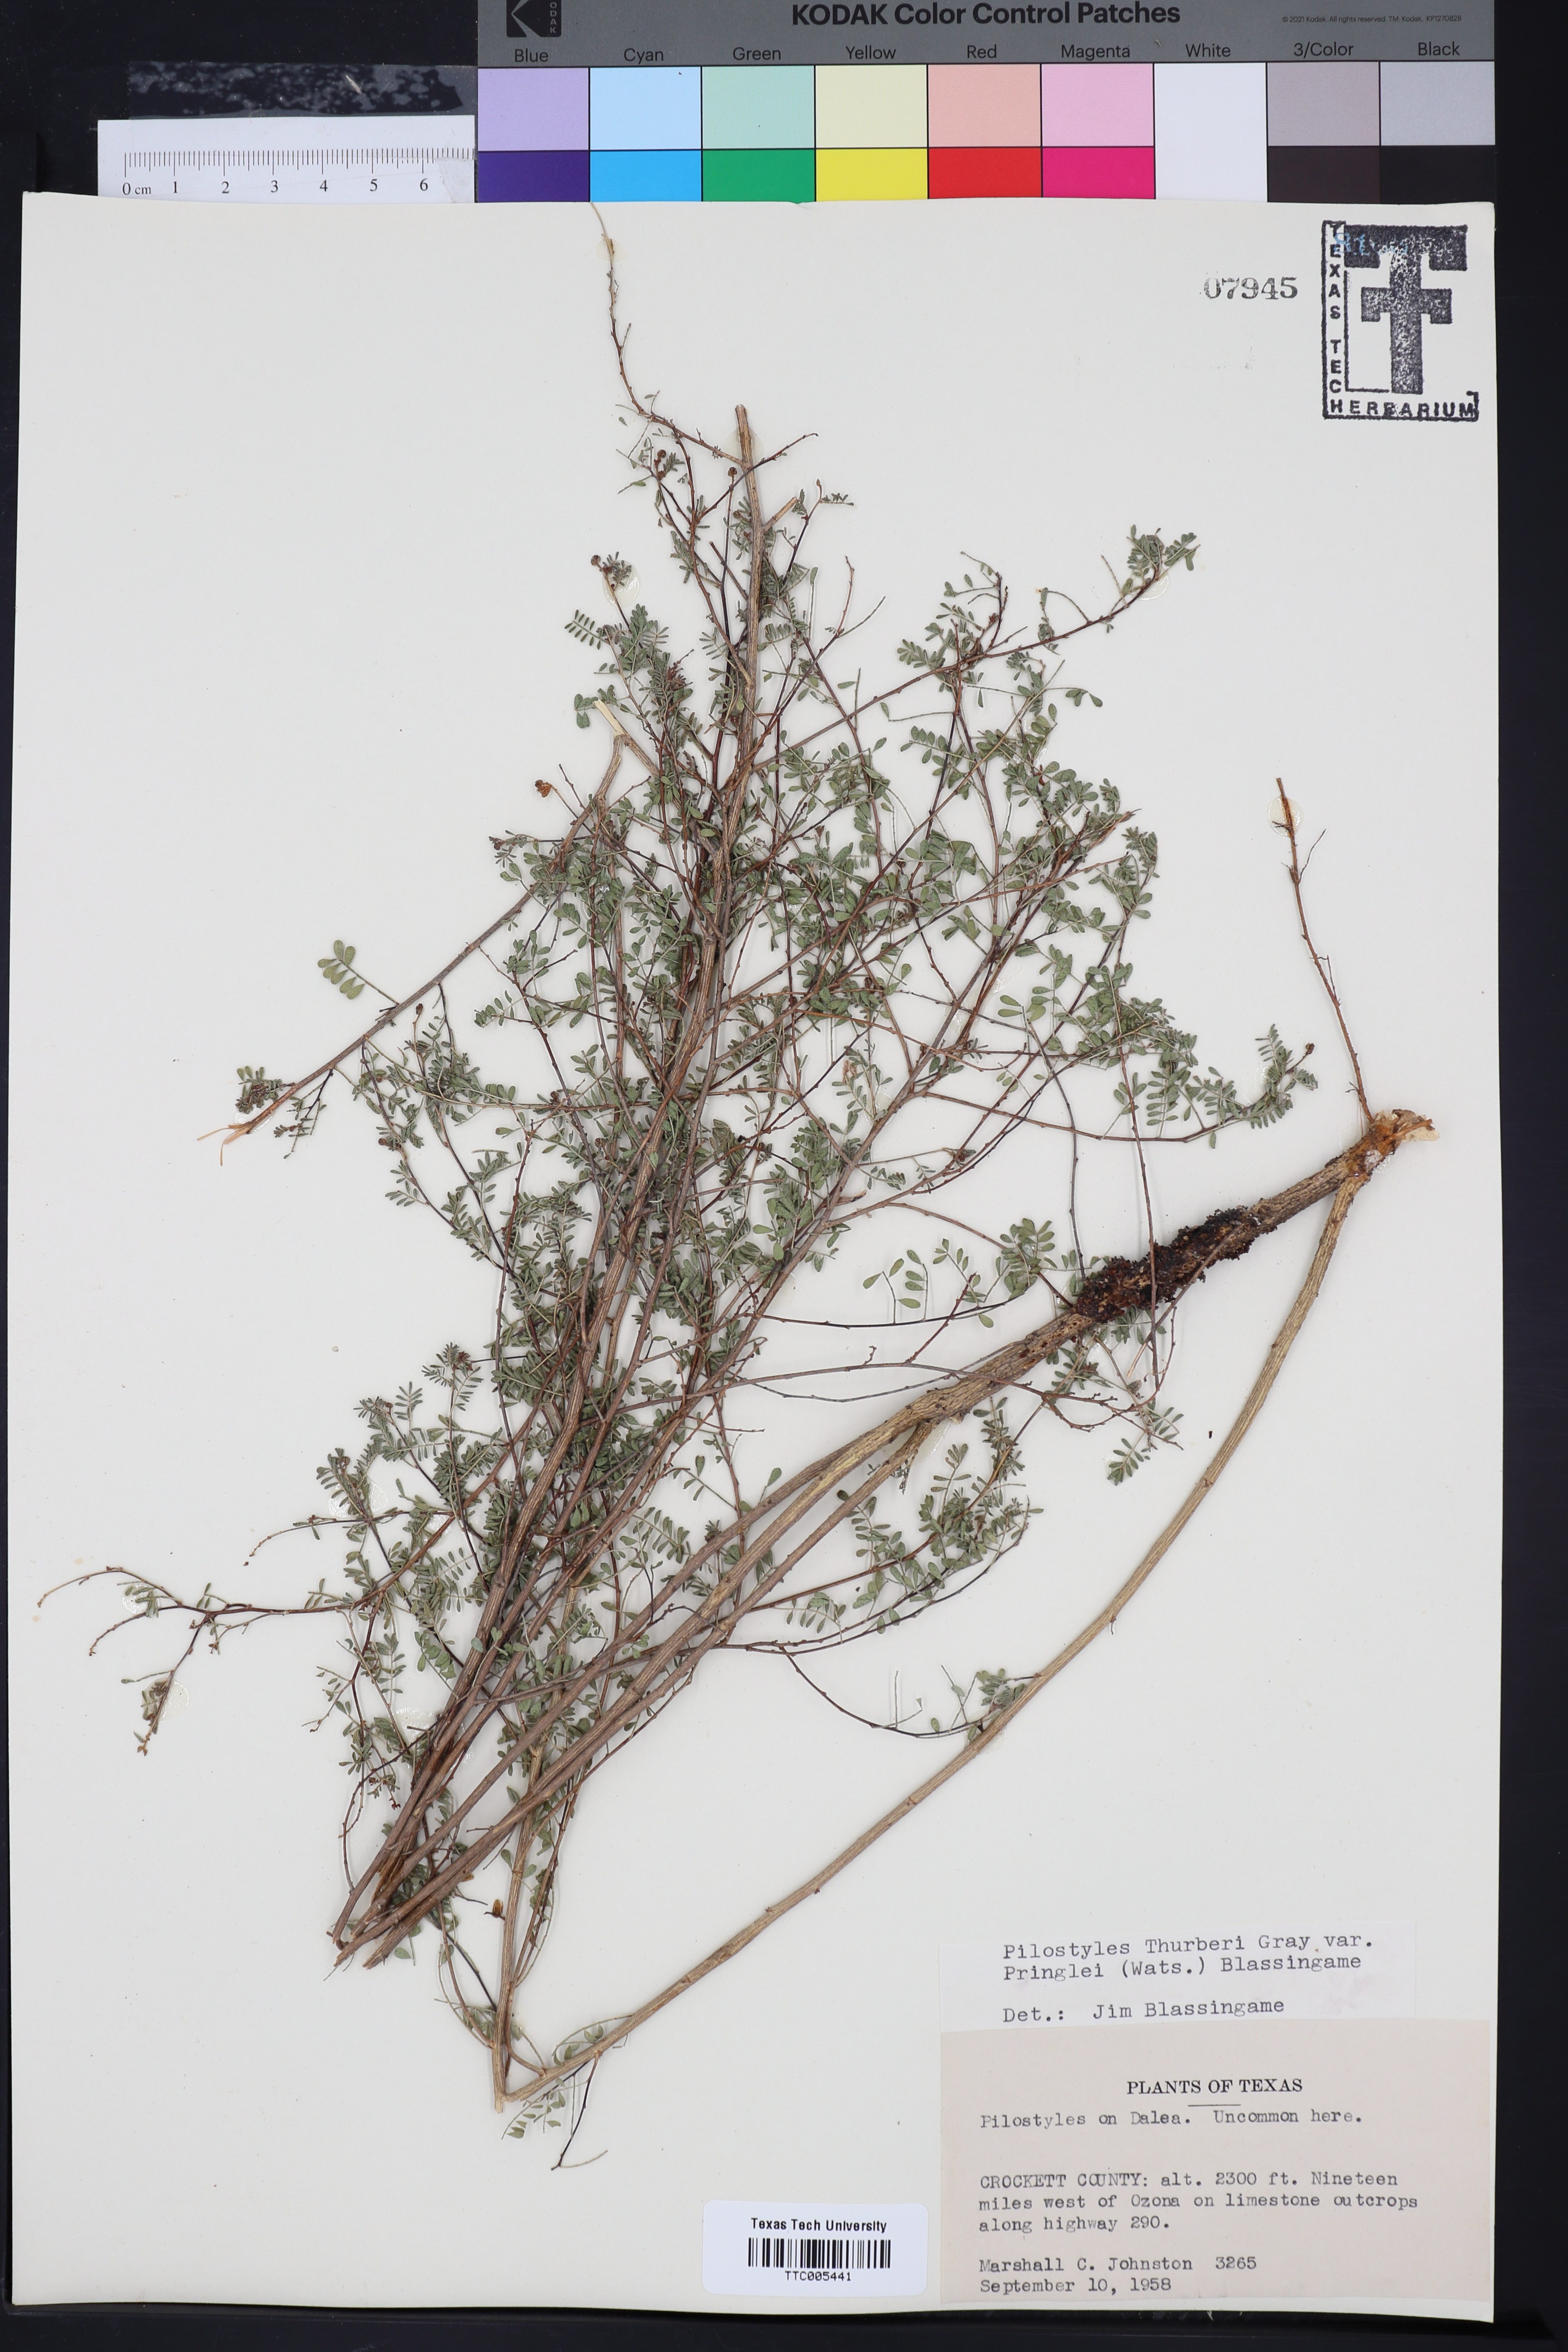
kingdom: Plantae
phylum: Tracheophyta
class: Magnoliopsida
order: Cucurbitales
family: Apodanthaceae
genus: Pilostyles
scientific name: Pilostyles thurberi
